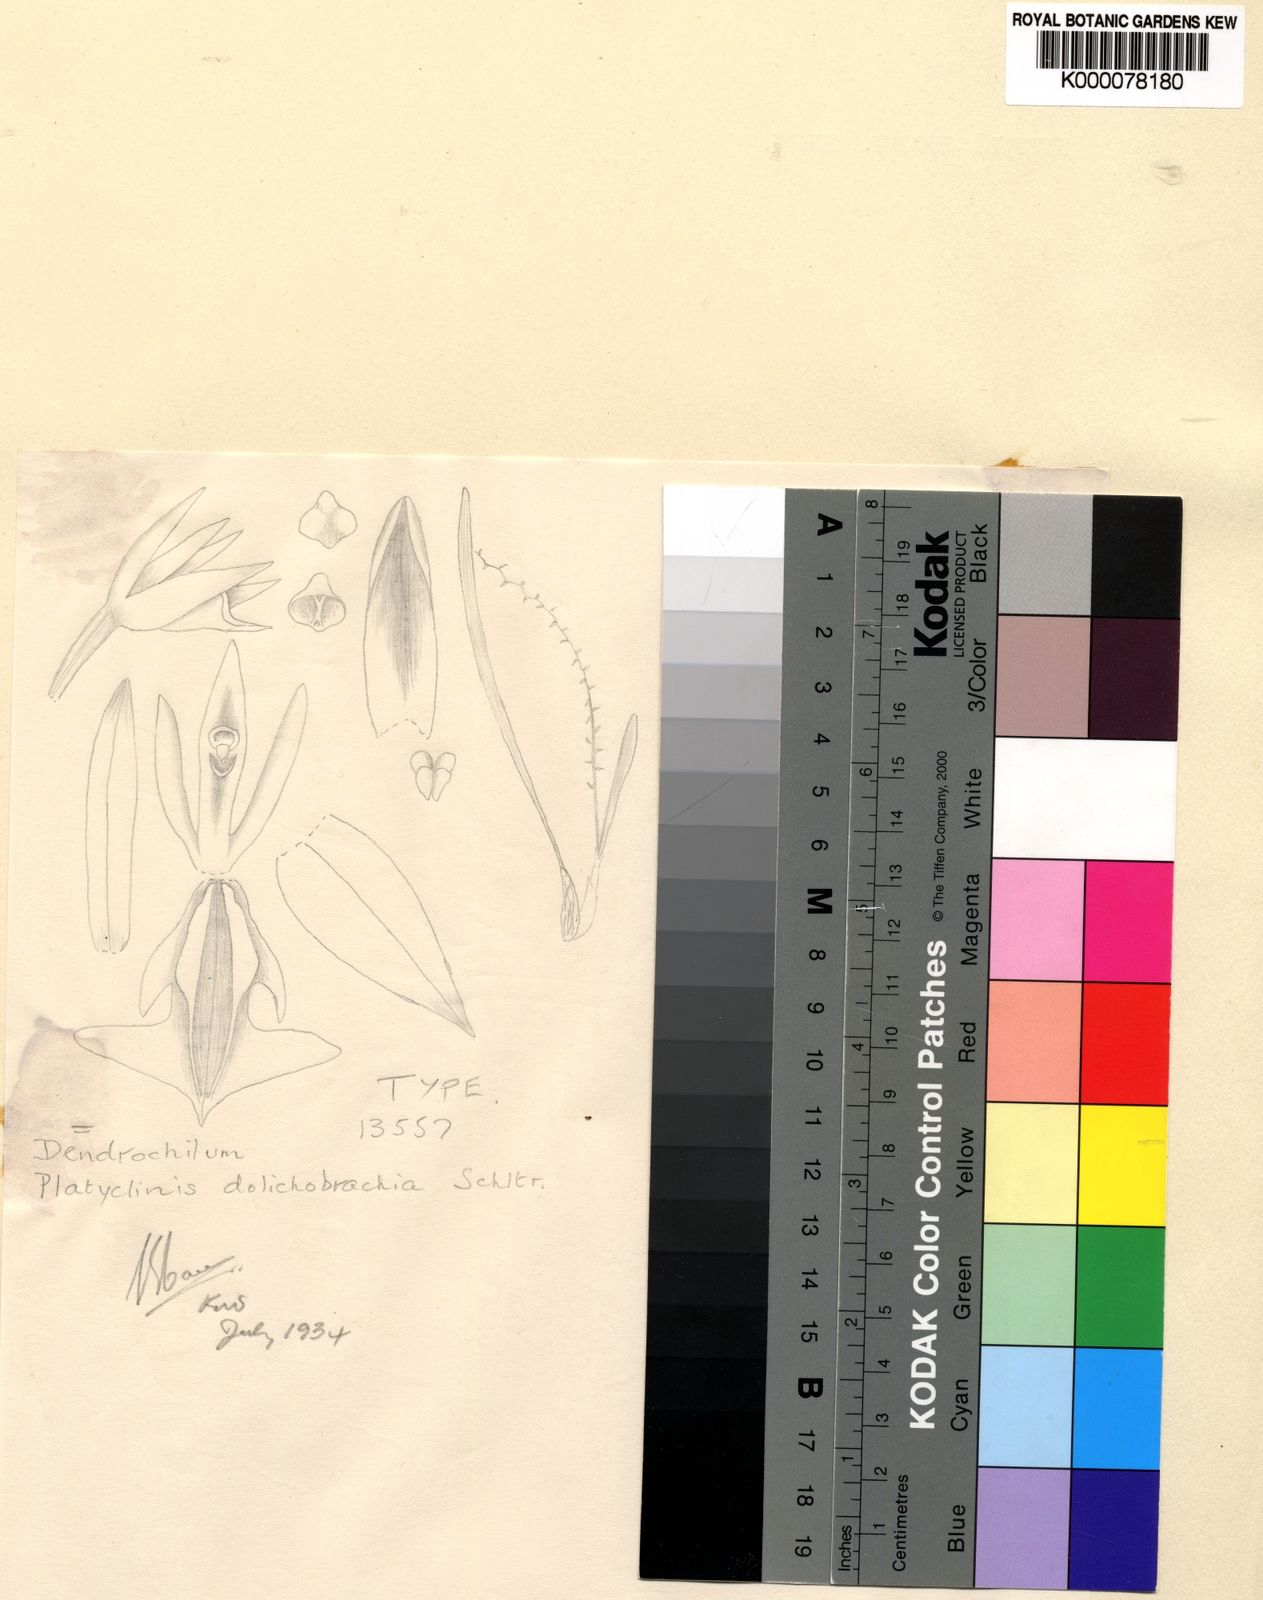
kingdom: Plantae
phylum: Tracheophyta
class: Liliopsida
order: Asparagales
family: Orchidaceae
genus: Coelogyne
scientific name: Coelogyne dolichobrachia
